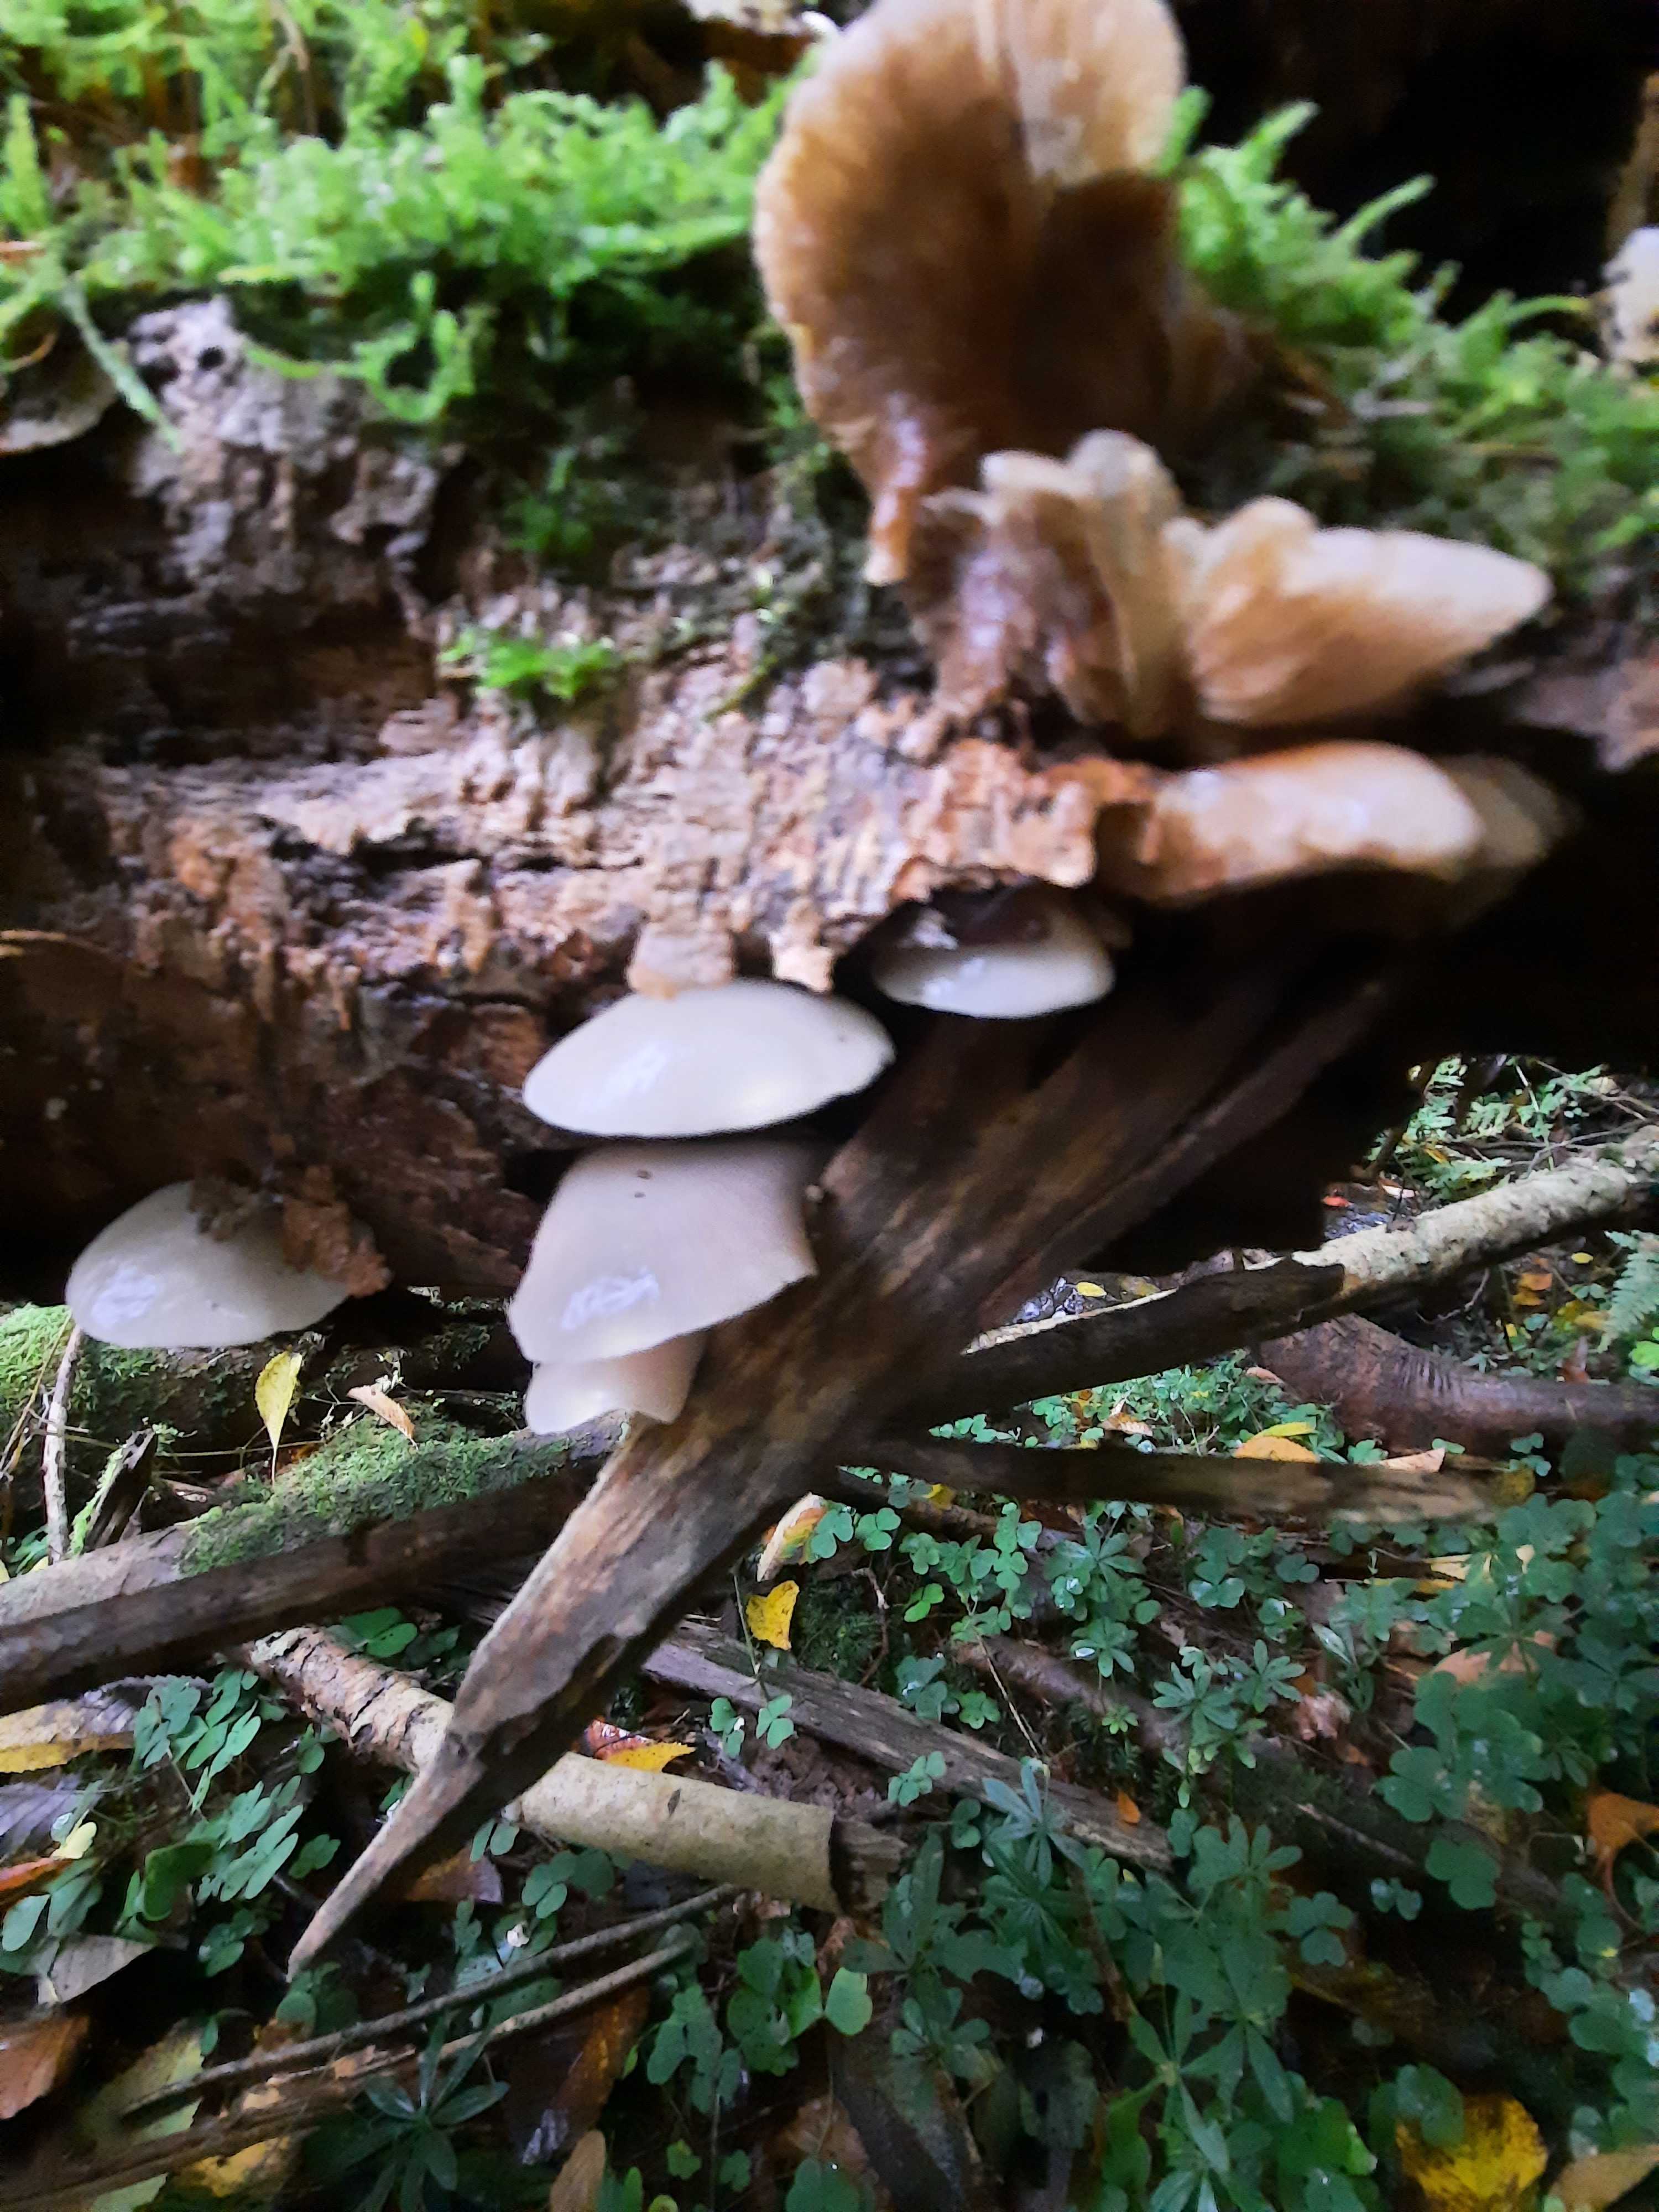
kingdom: Fungi
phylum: Basidiomycota
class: Agaricomycetes
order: Agaricales
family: Crepidotaceae
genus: Crepidotus
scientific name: Crepidotus mollis
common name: blød muslingesvamp
